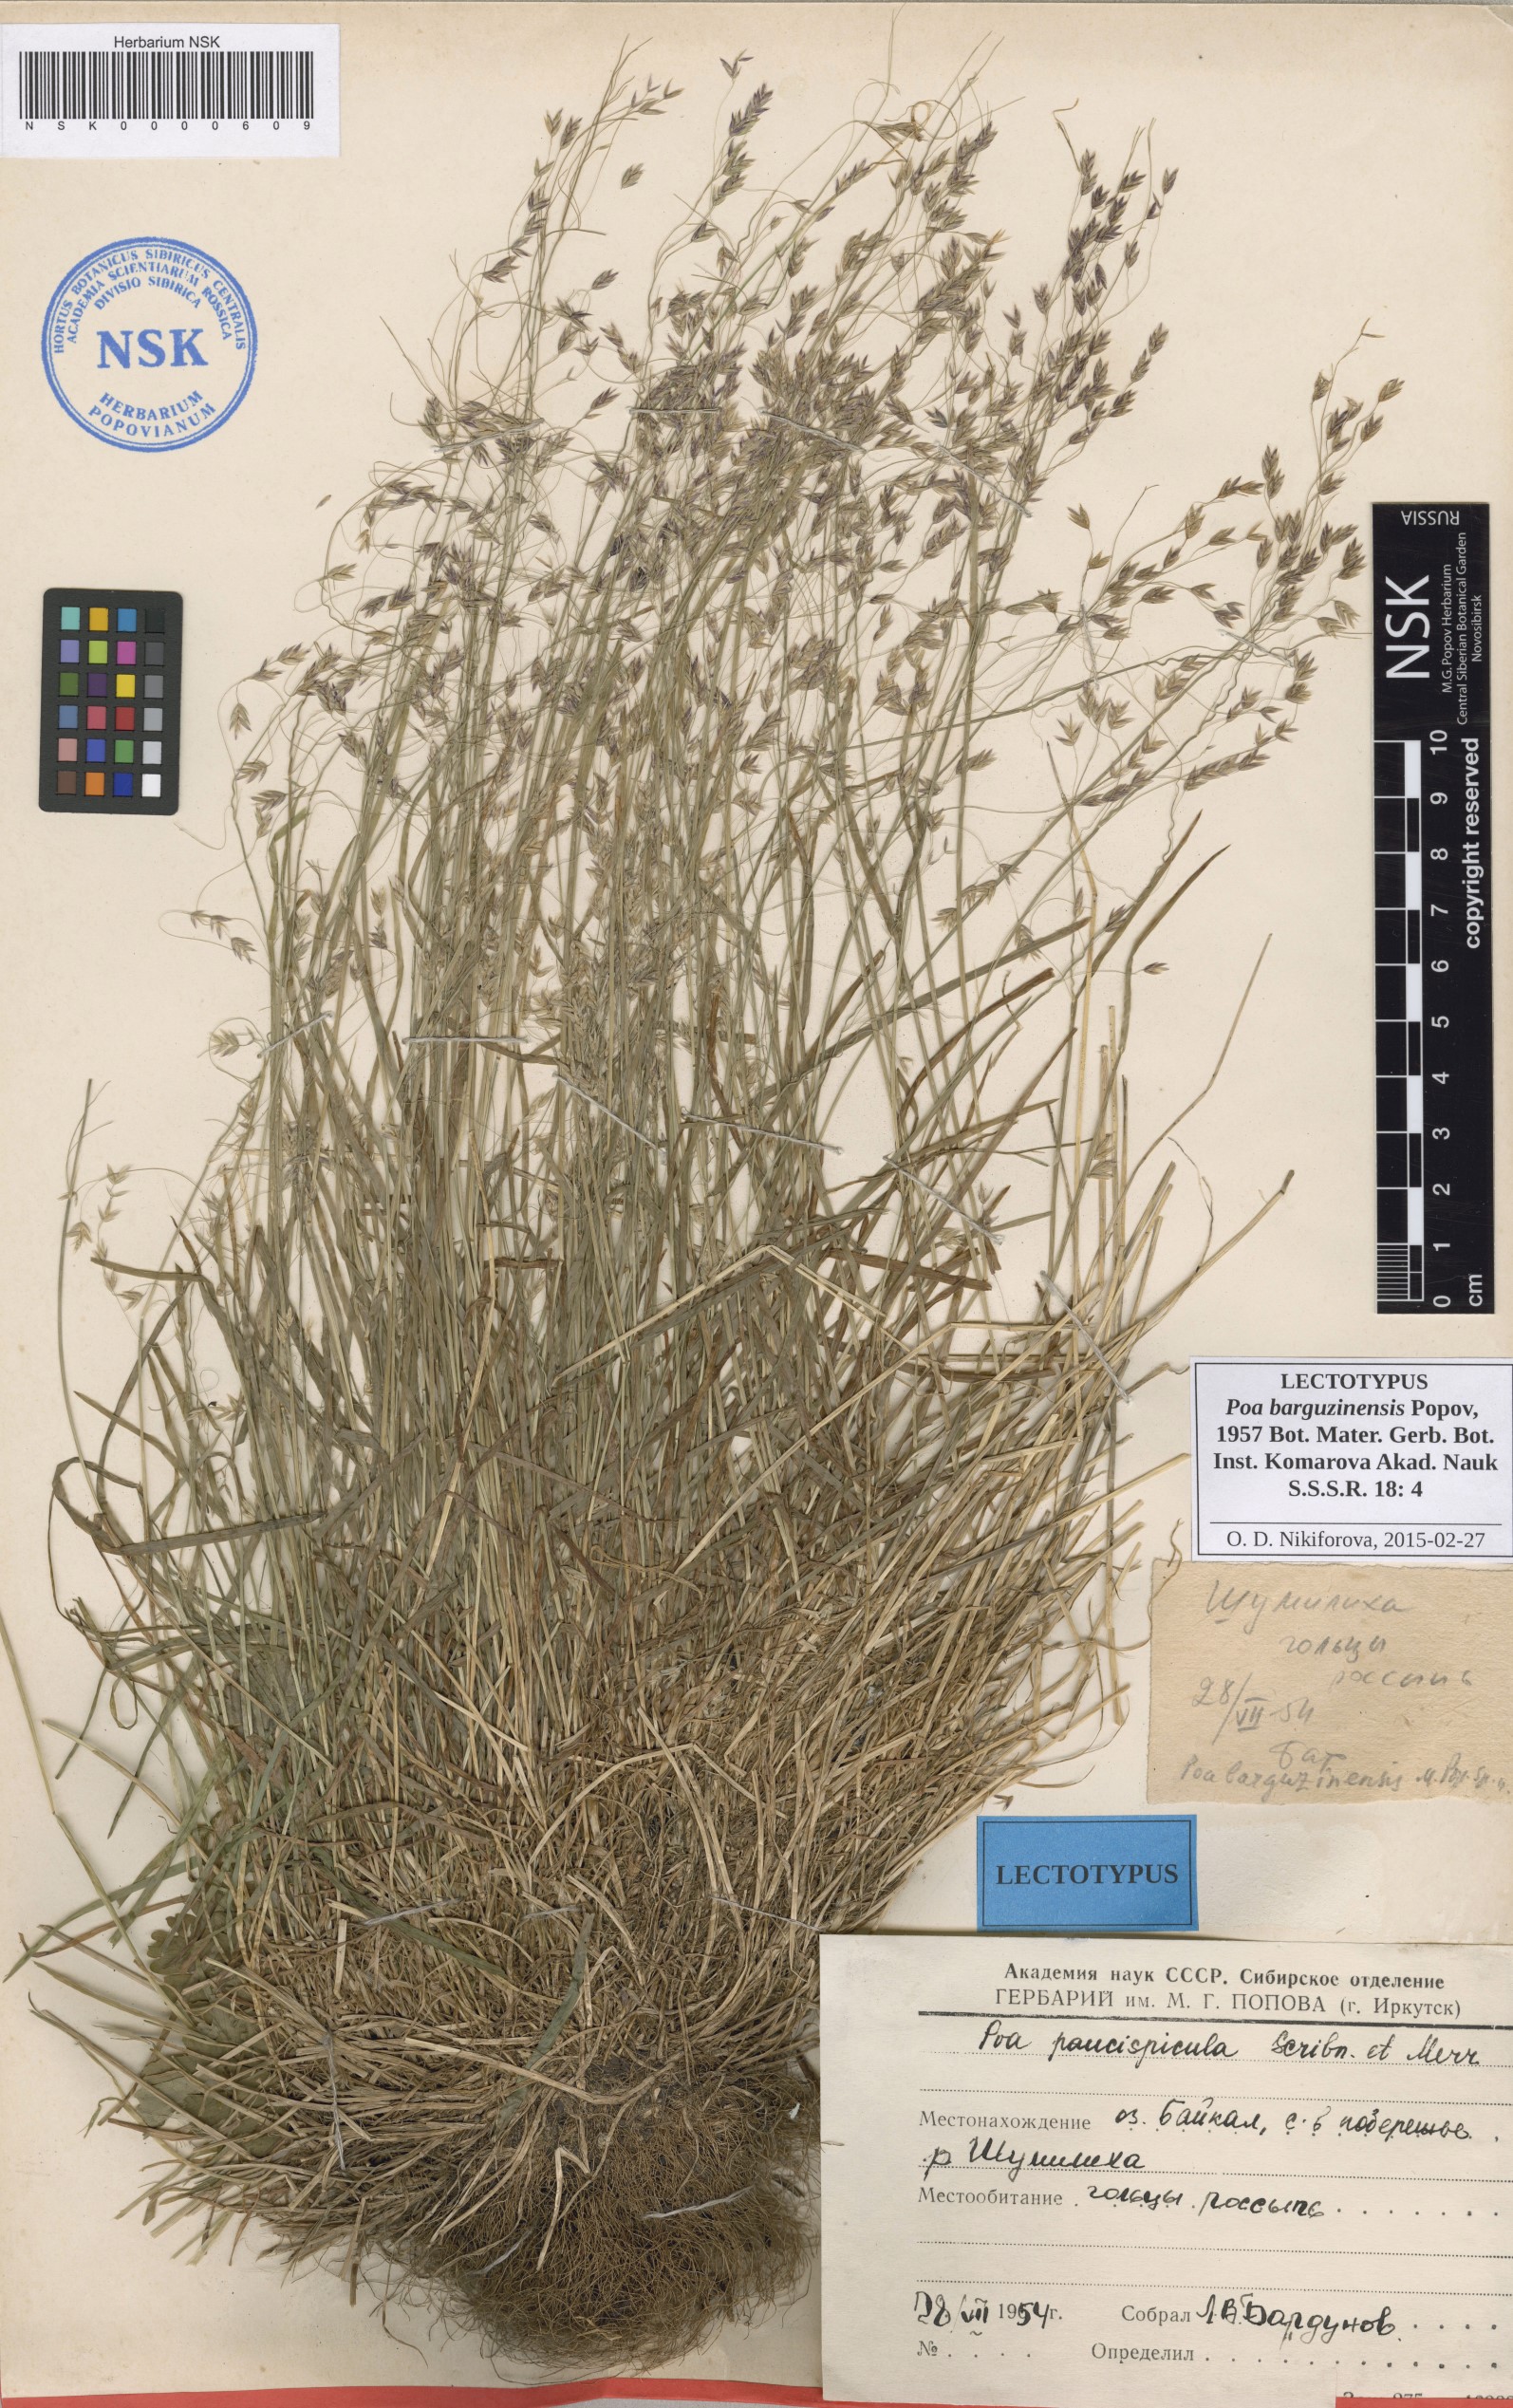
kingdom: Plantae
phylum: Tracheophyta
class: Liliopsida
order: Poales
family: Poaceae
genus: Poa
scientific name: Poa leptocoma
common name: Bog bluegrass
